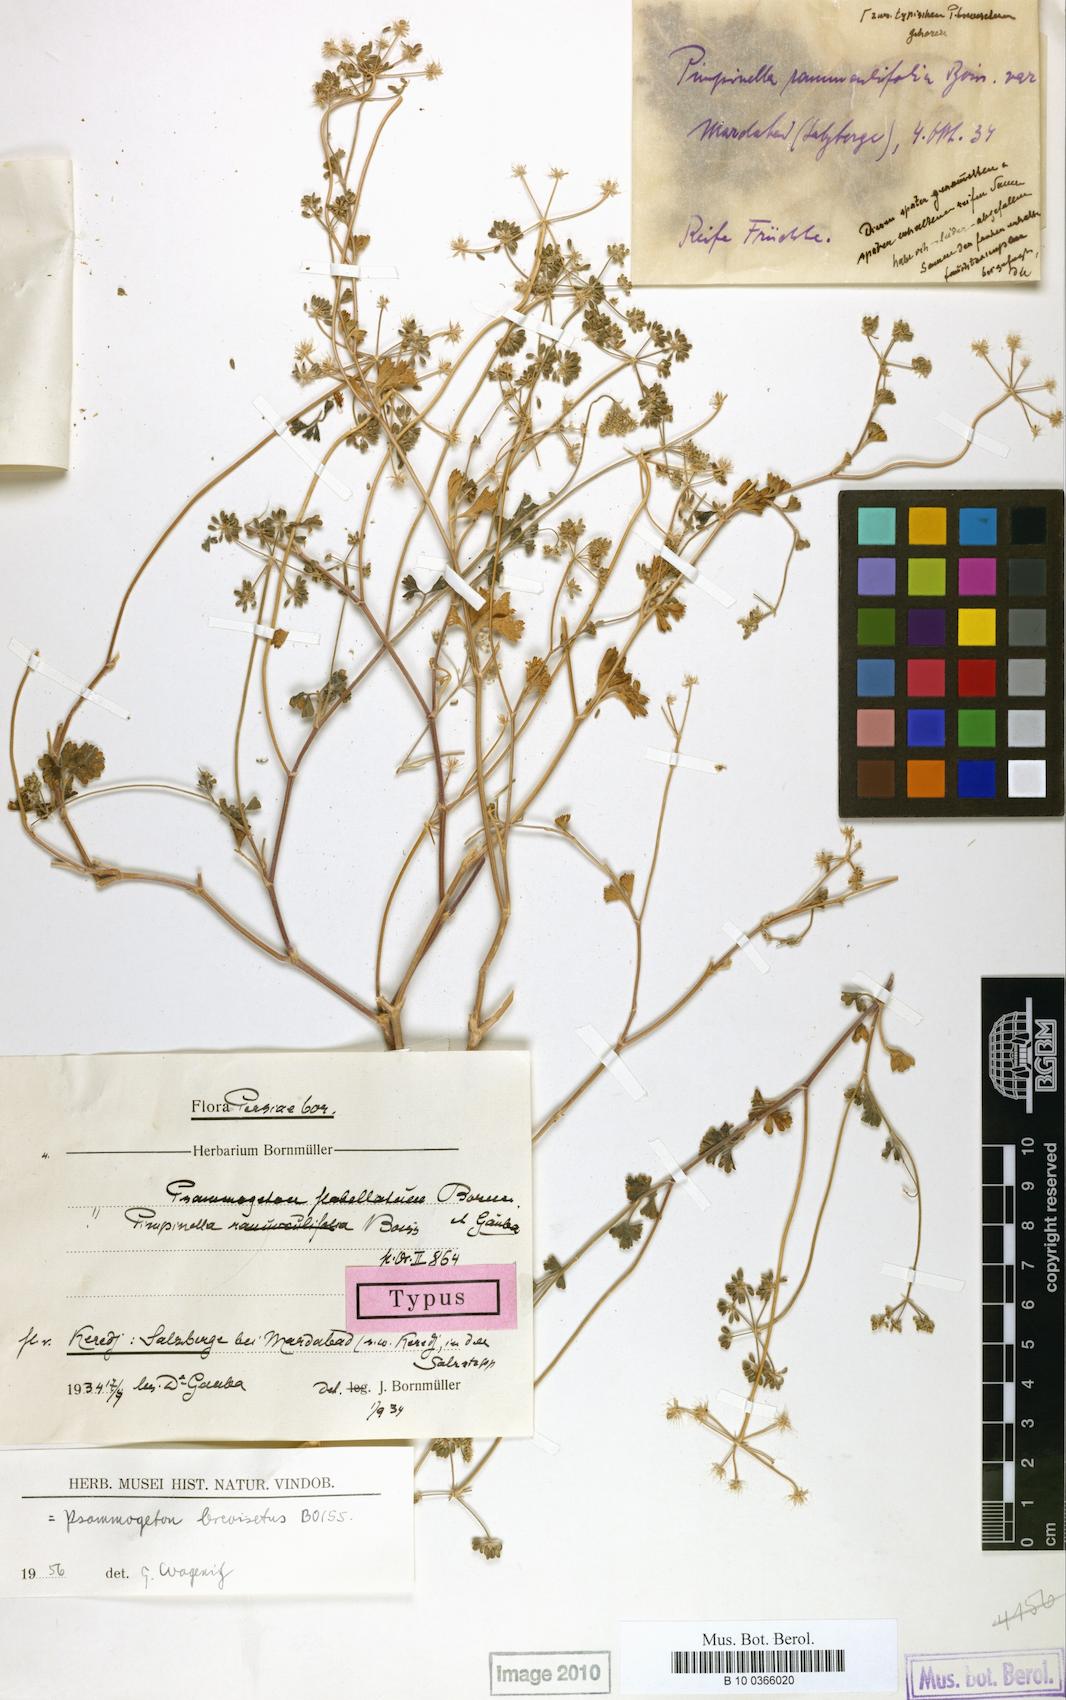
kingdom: Plantae
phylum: Tracheophyta
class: Magnoliopsida
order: Apiales
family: Apiaceae
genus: Aphanopleura
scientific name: Aphanopleura breviseta
